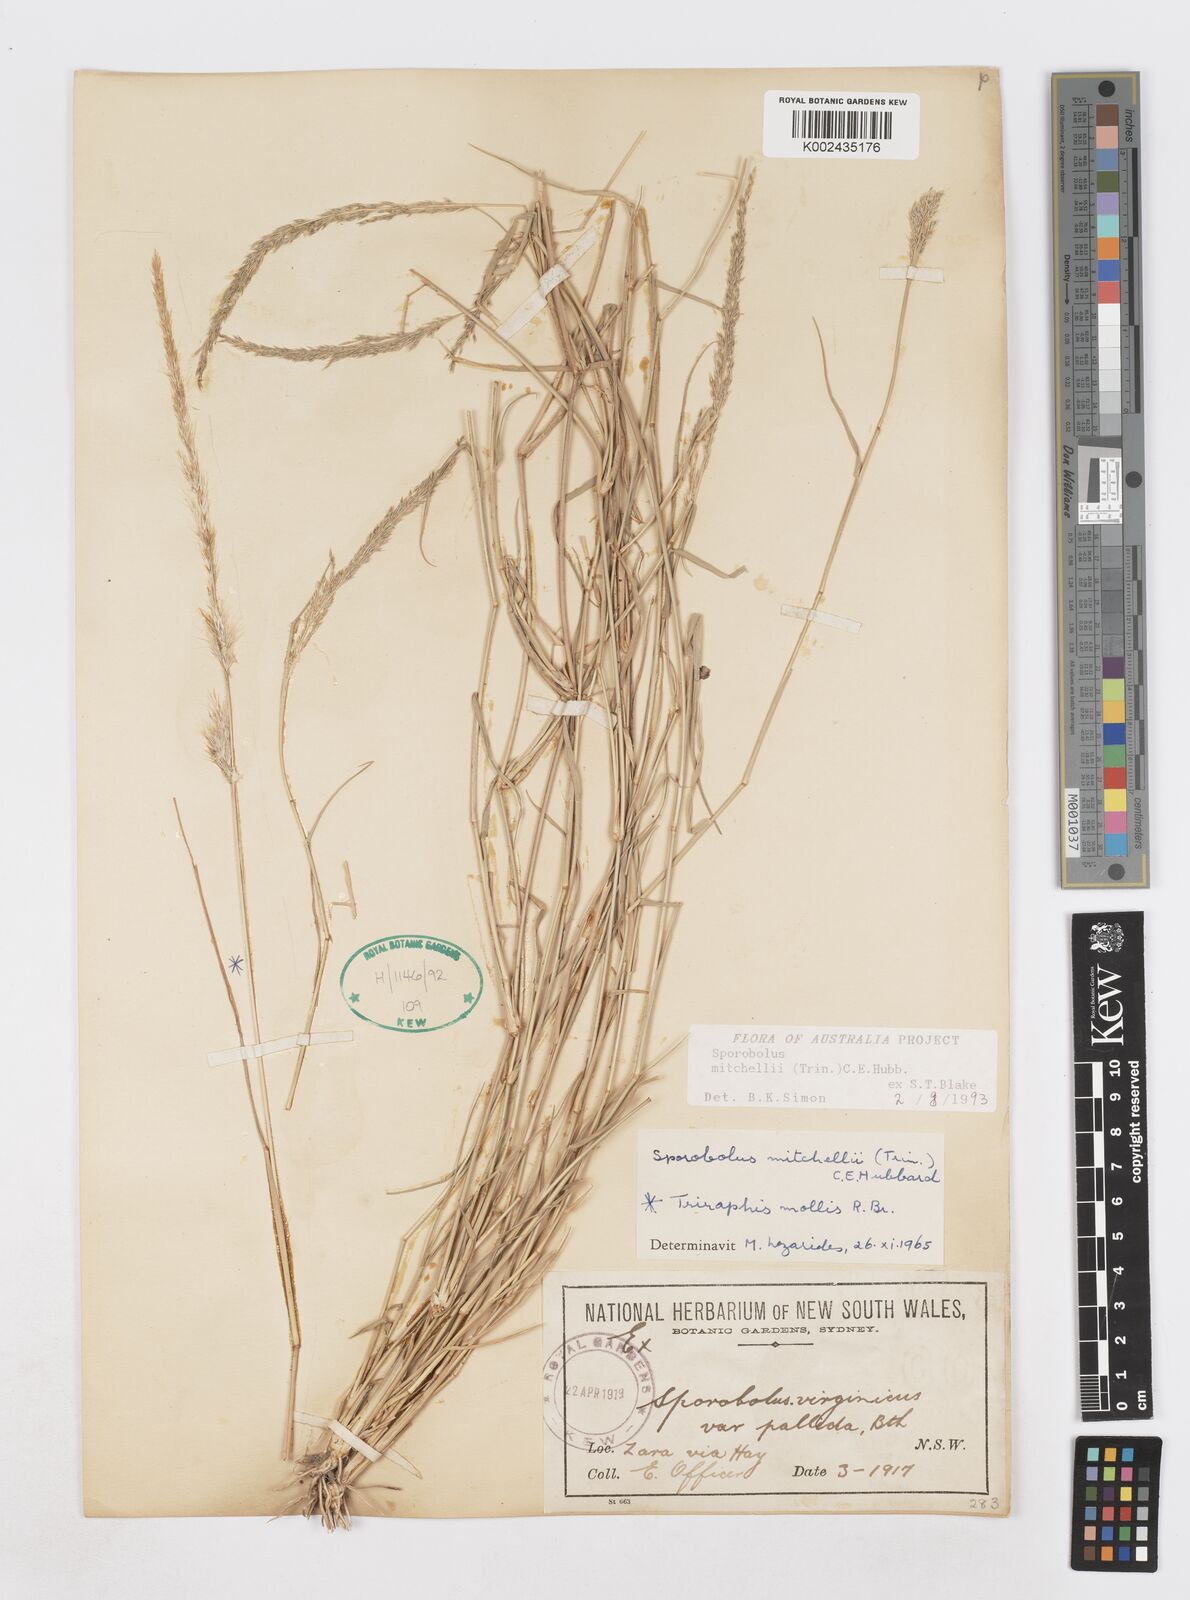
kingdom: Plantae
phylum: Tracheophyta
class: Liliopsida
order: Poales
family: Poaceae
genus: Sporobolus
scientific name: Sporobolus mitchellii
